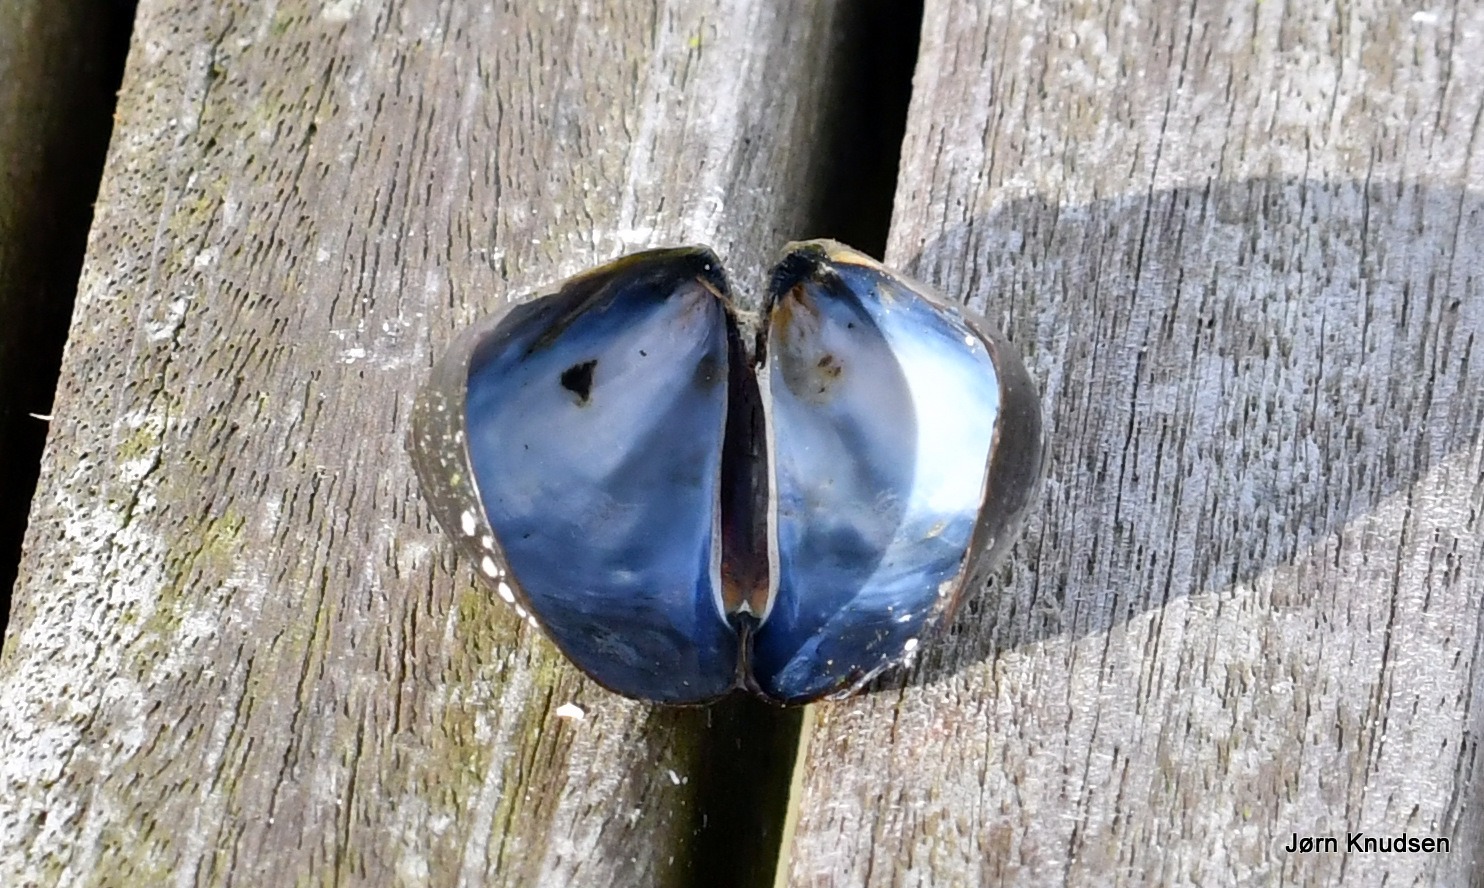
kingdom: Animalia
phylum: Mollusca
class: Bivalvia
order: Mytilida
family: Mytilidae
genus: Mytilus
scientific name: Mytilus edulis
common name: Blåmusling
